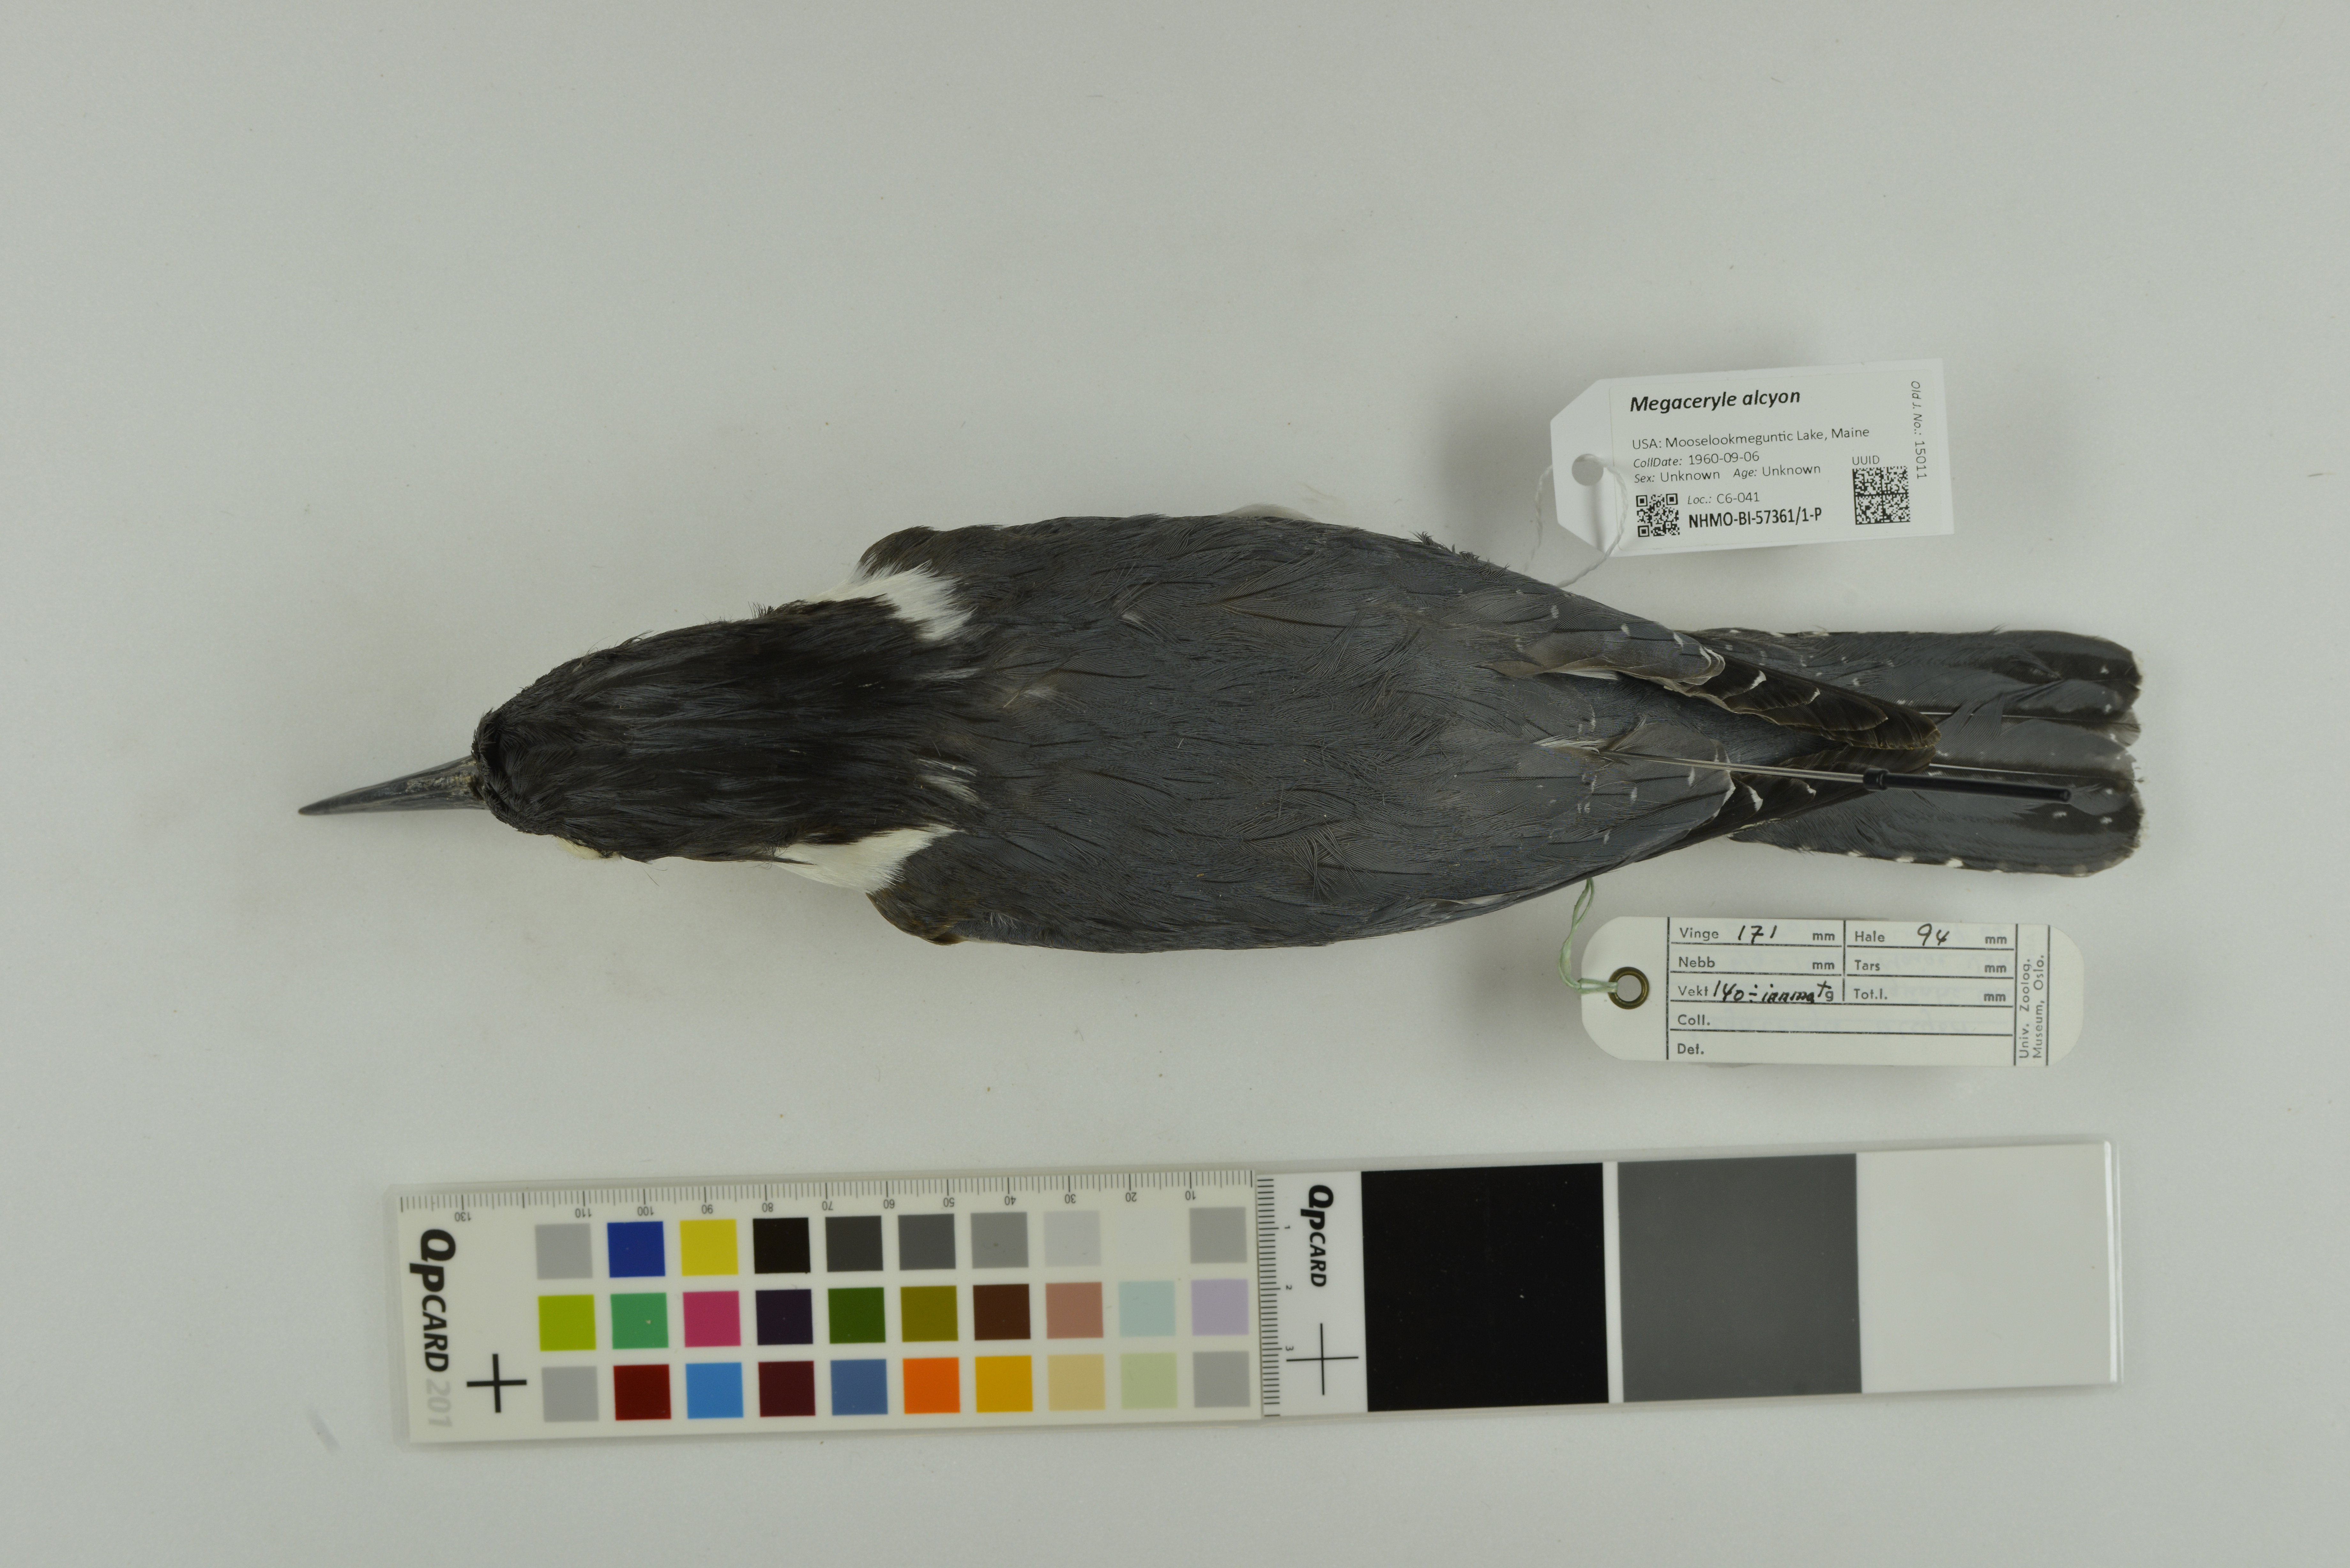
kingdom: Animalia
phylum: Chordata
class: Aves
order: Coraciiformes
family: Alcedinidae
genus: Megaceryle
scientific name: Megaceryle alcyon
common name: Belted kingfisher
